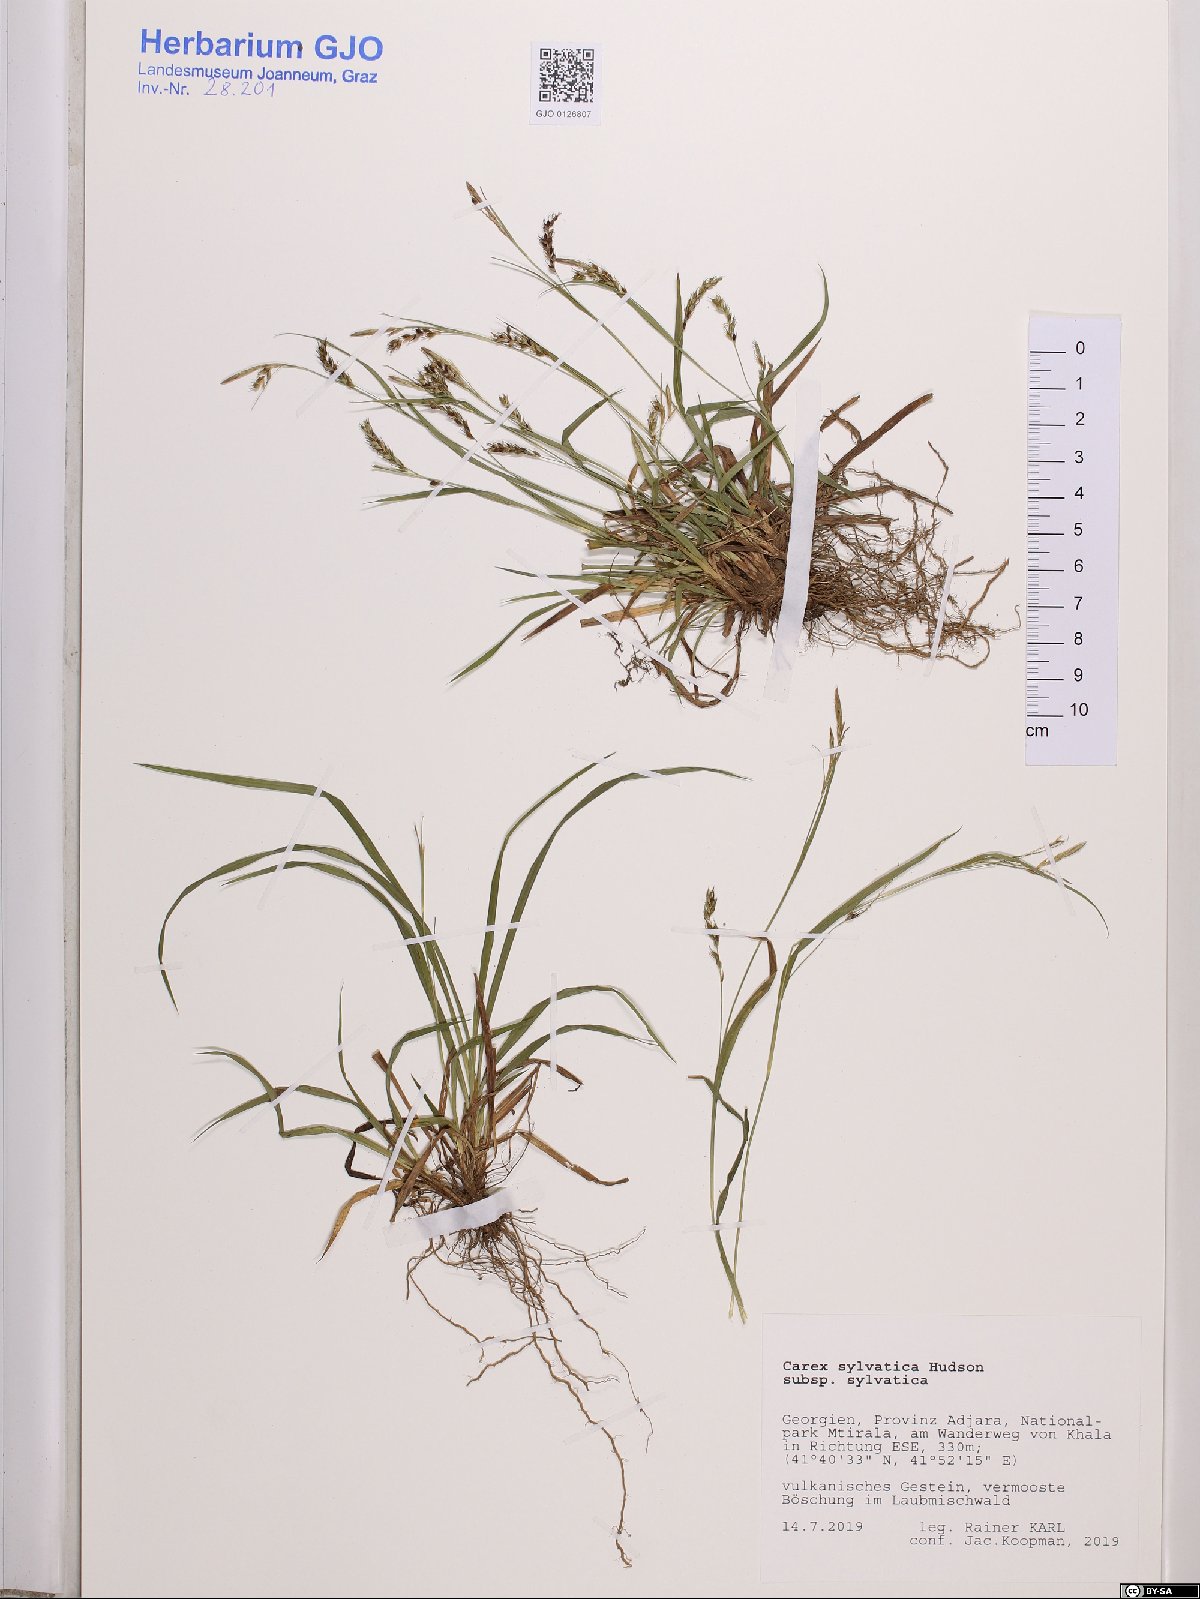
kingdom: Plantae
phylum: Tracheophyta
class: Liliopsida
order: Poales
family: Cyperaceae
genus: Carex
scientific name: Carex sylvatica
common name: Wood-sedge
